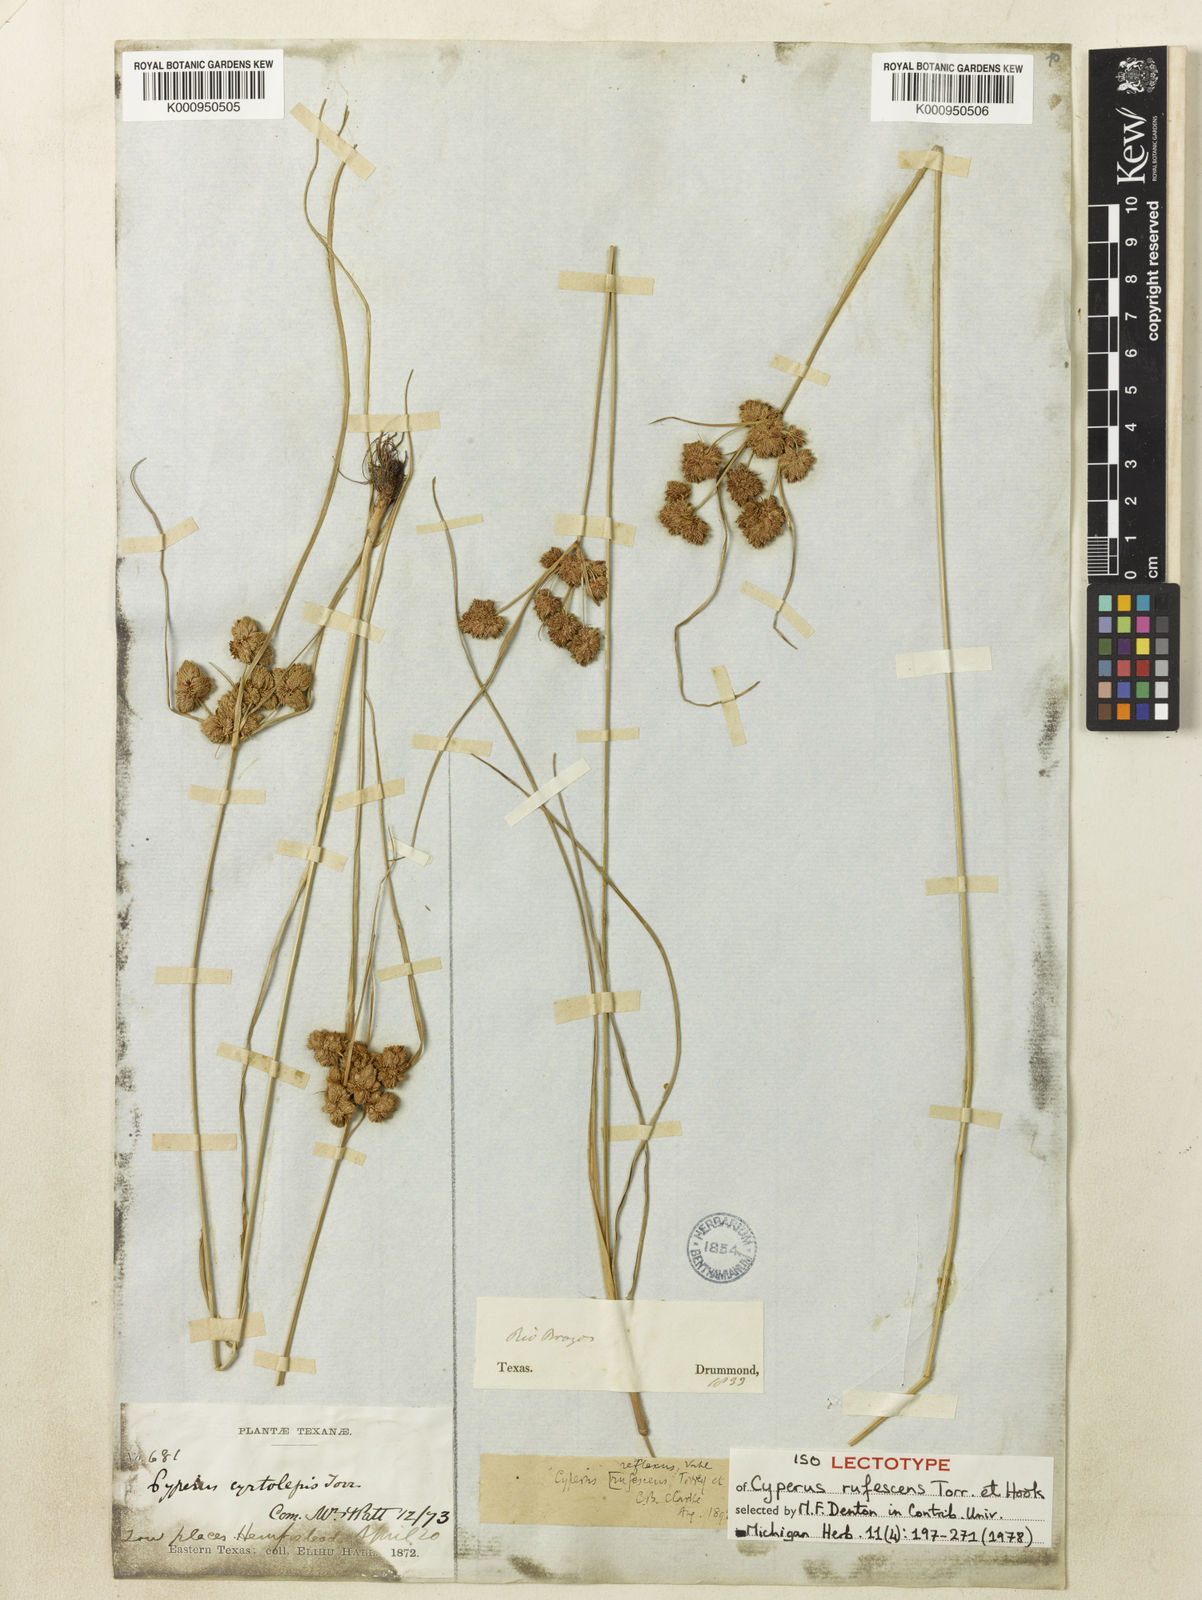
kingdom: Plantae
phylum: Tracheophyta
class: Liliopsida
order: Poales
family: Cyperaceae
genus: Cyperus
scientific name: Cyperus reflexus
